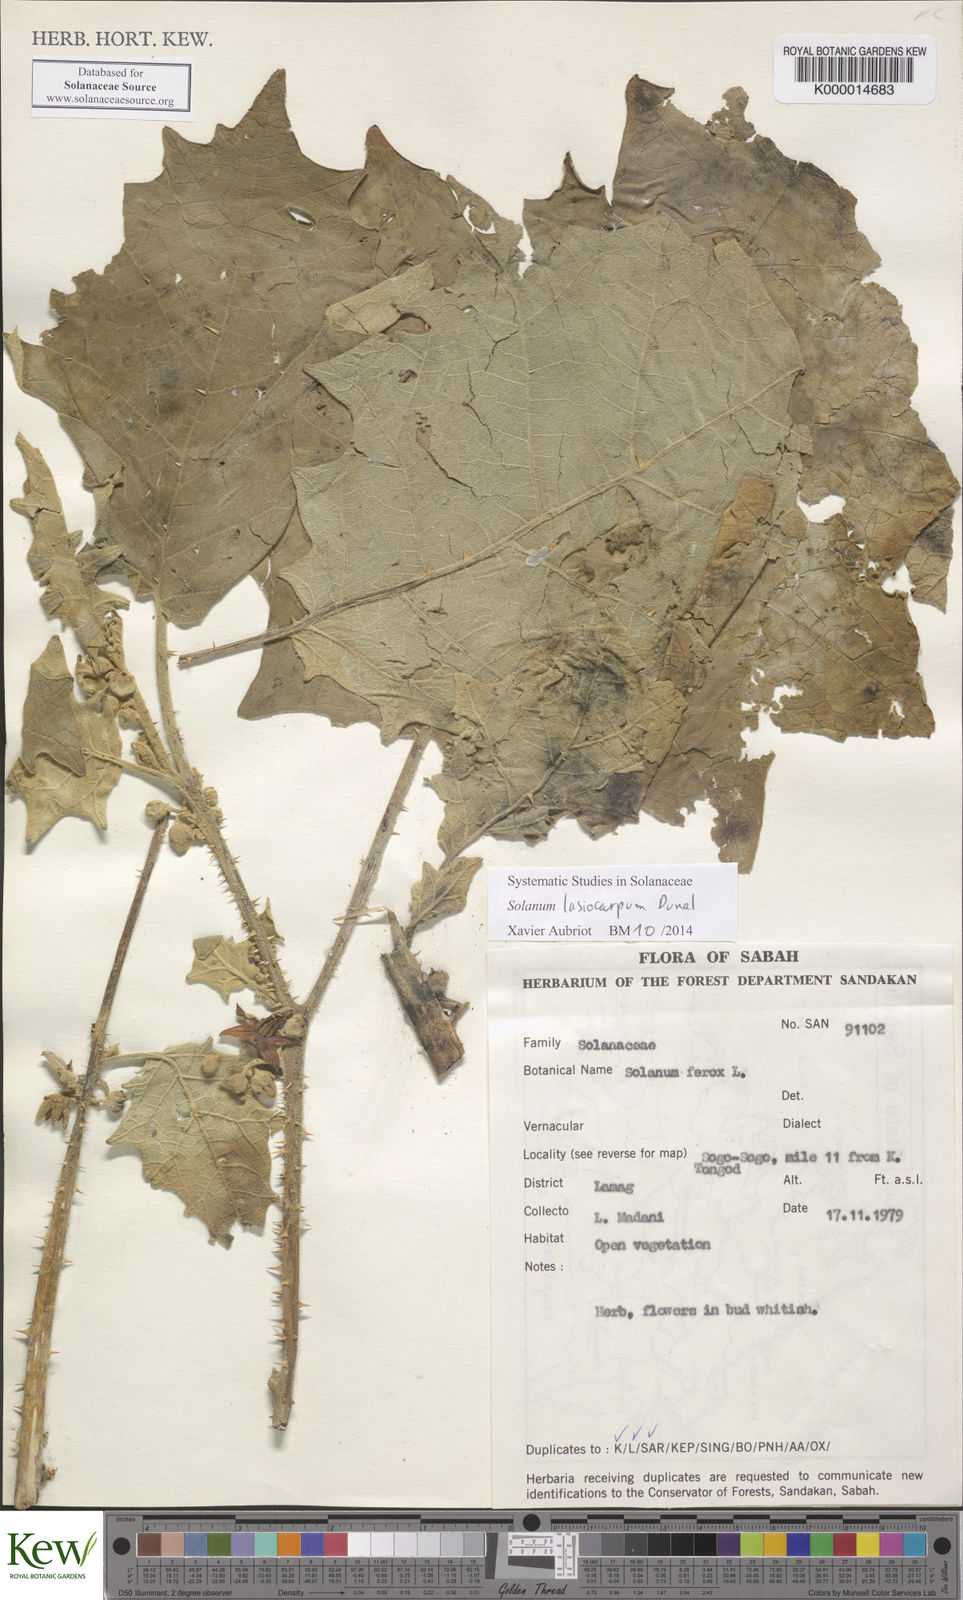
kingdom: Plantae
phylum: Tracheophyta
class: Magnoliopsida
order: Solanales
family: Solanaceae
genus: Solanum
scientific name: Solanum lasiocarpum
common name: Indian nightshade
